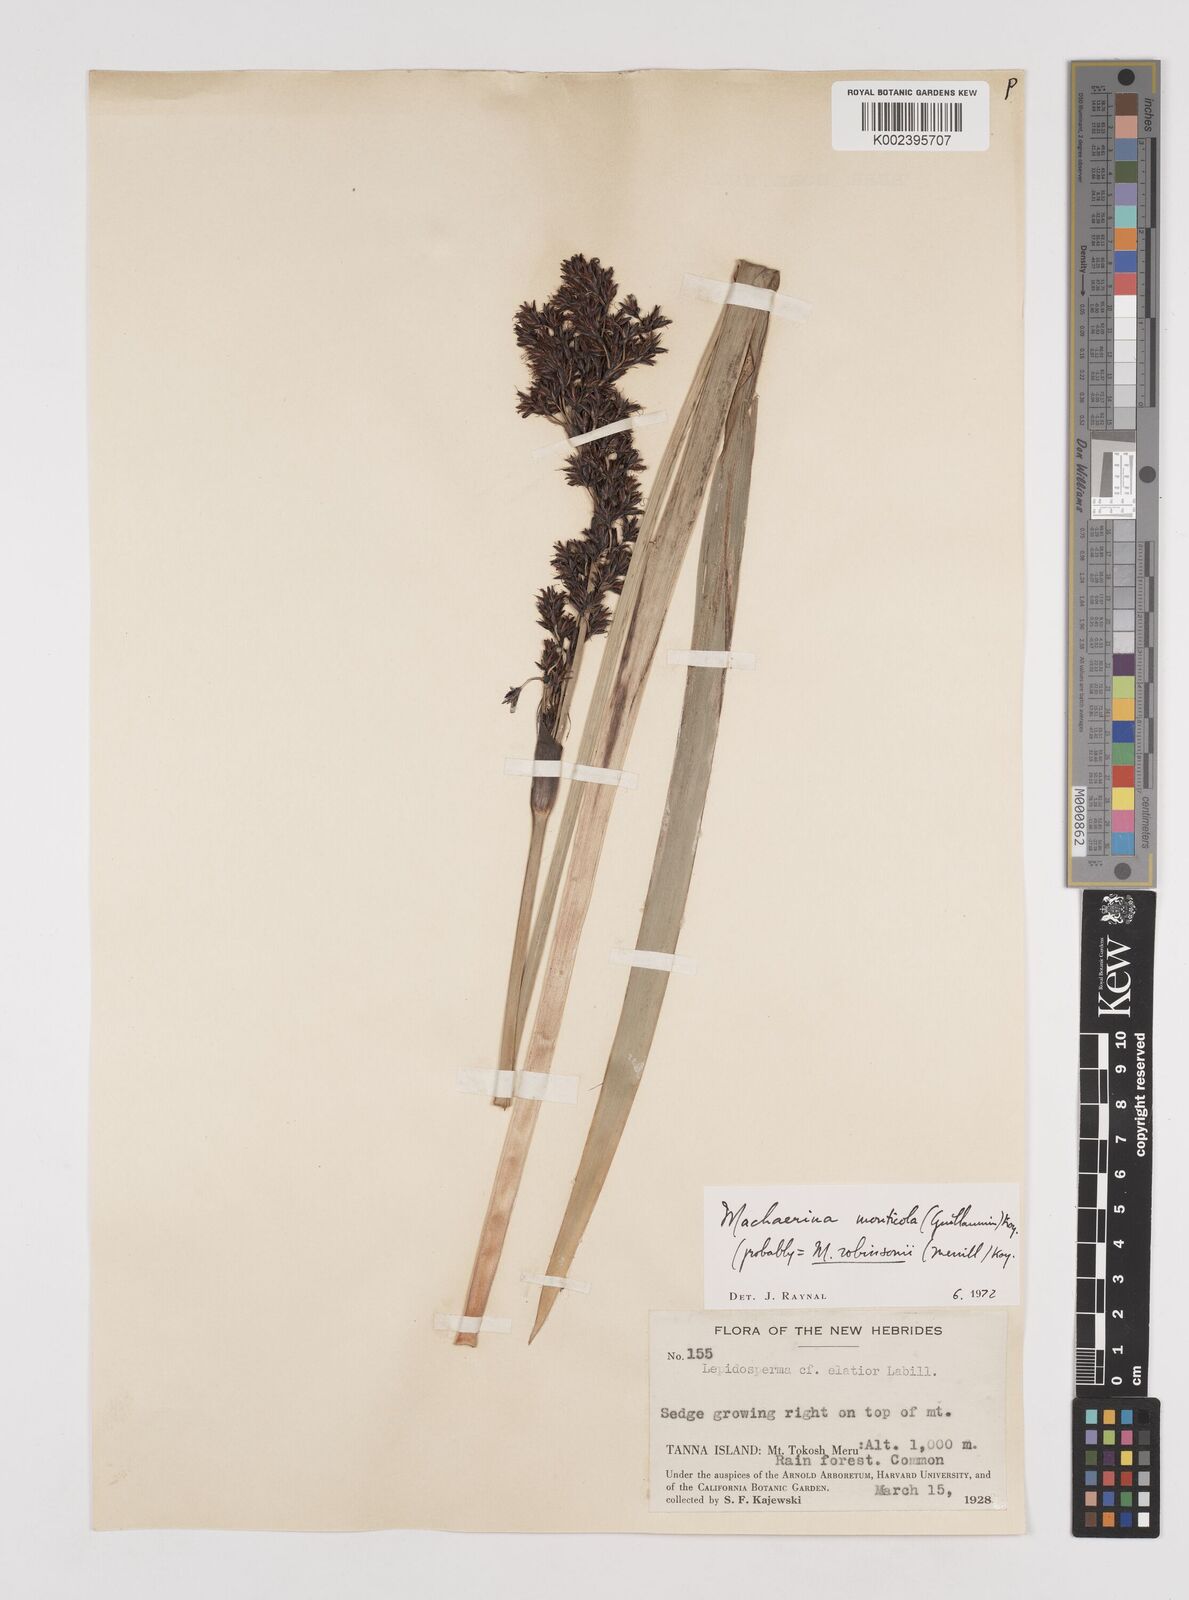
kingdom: Plantae
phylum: Tracheophyta
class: Liliopsida
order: Poales
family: Cyperaceae
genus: Machaerina
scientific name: Machaerina sinclairii
